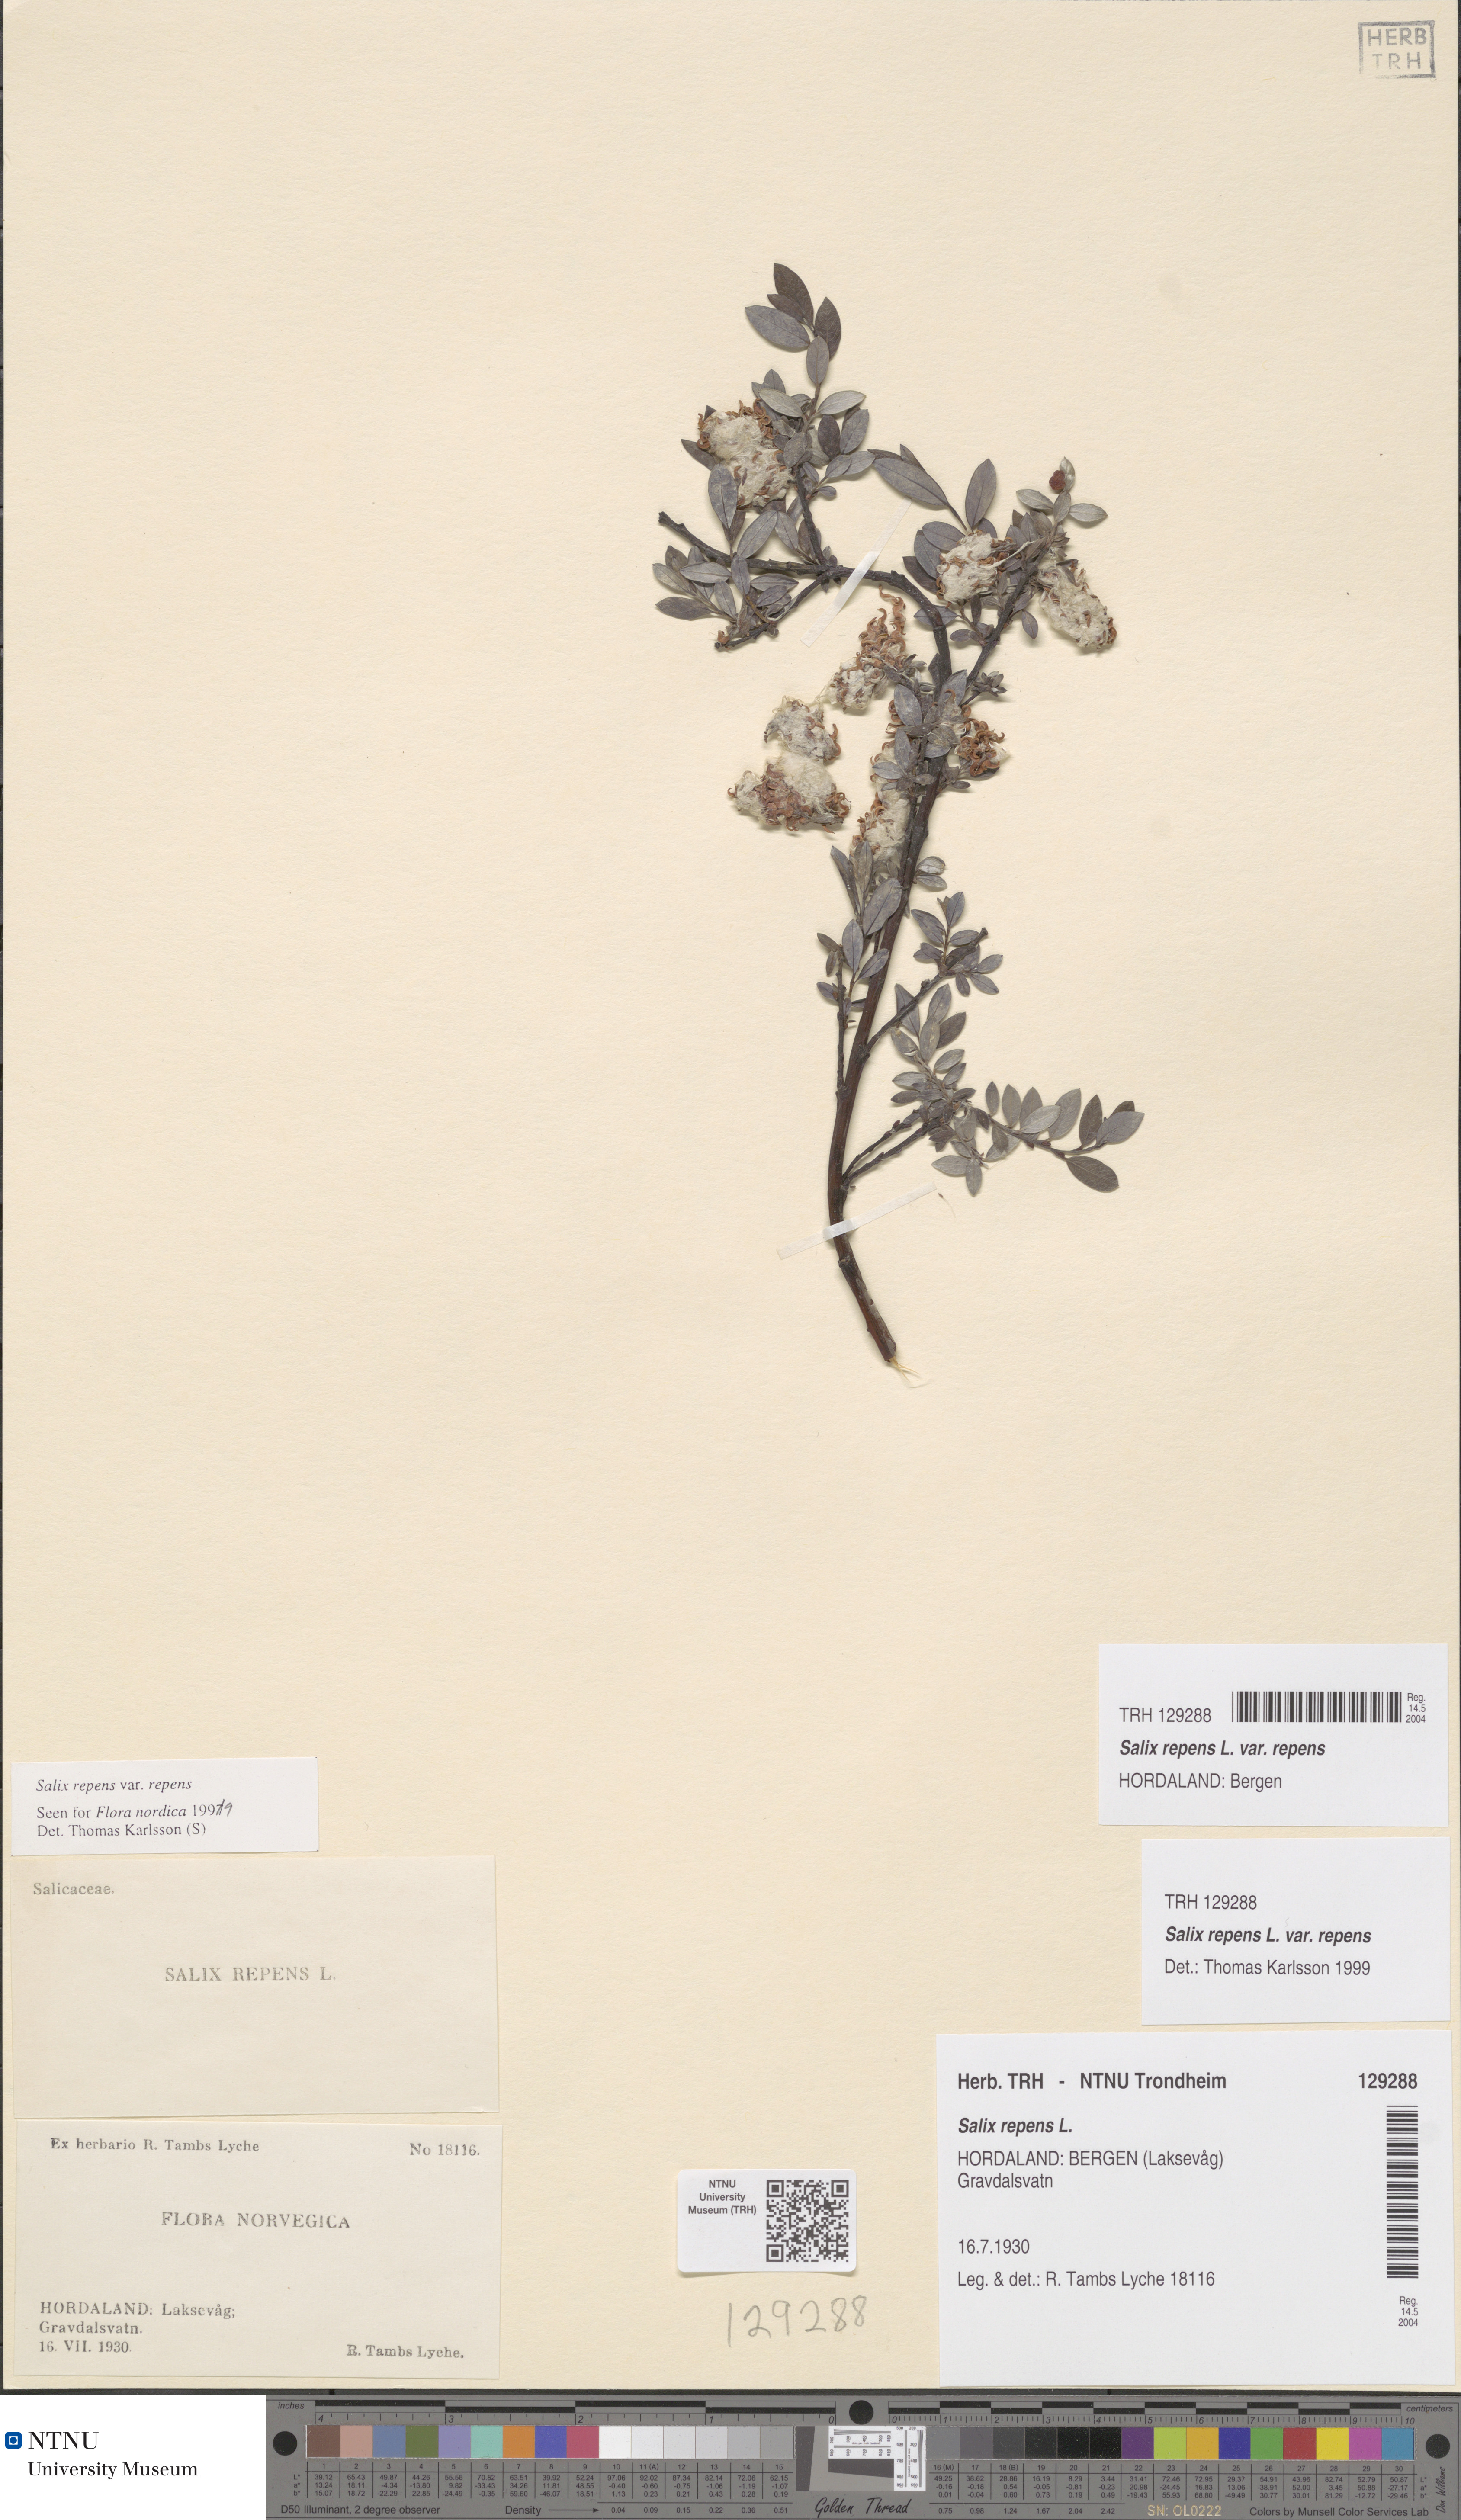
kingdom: Plantae
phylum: Tracheophyta
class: Magnoliopsida
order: Malpighiales
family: Salicaceae
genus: Salix
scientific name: Salix repens
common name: Creeping willow
